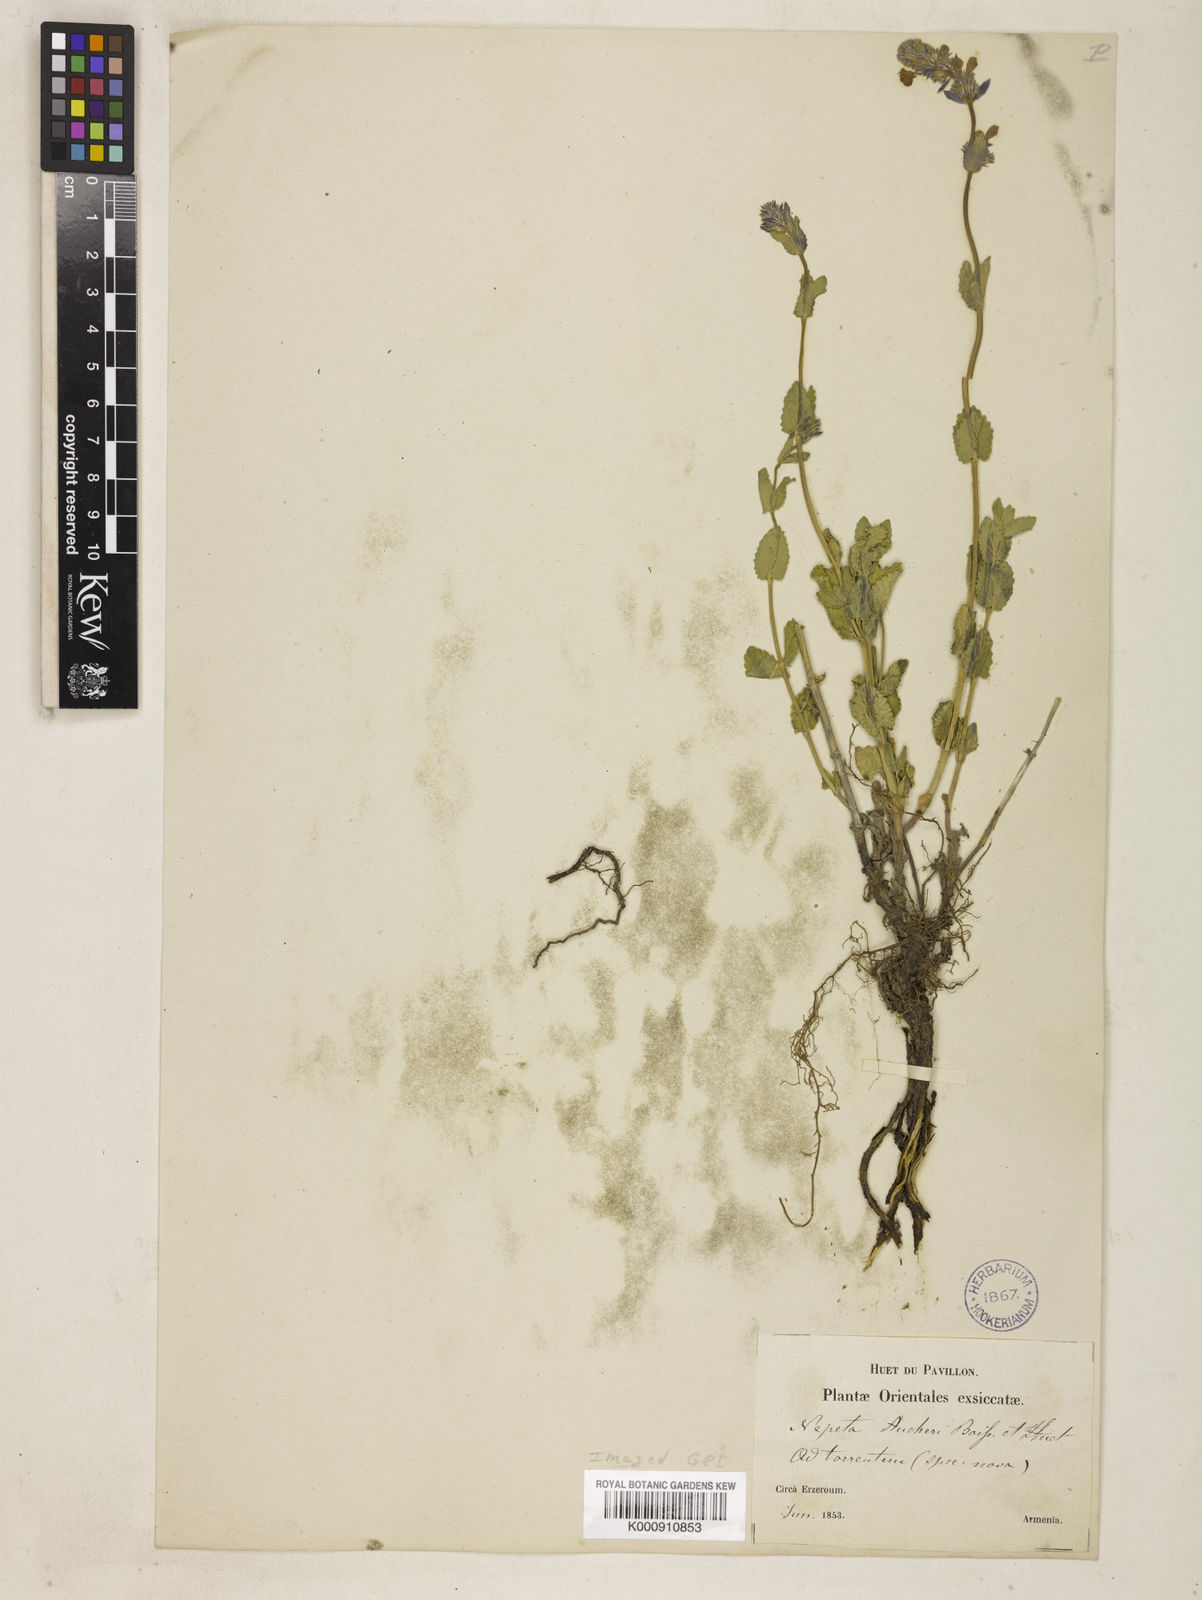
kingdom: Plantae
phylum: Tracheophyta
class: Magnoliopsida
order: Lamiales
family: Lamiaceae
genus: Nepeta
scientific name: Nepeta
